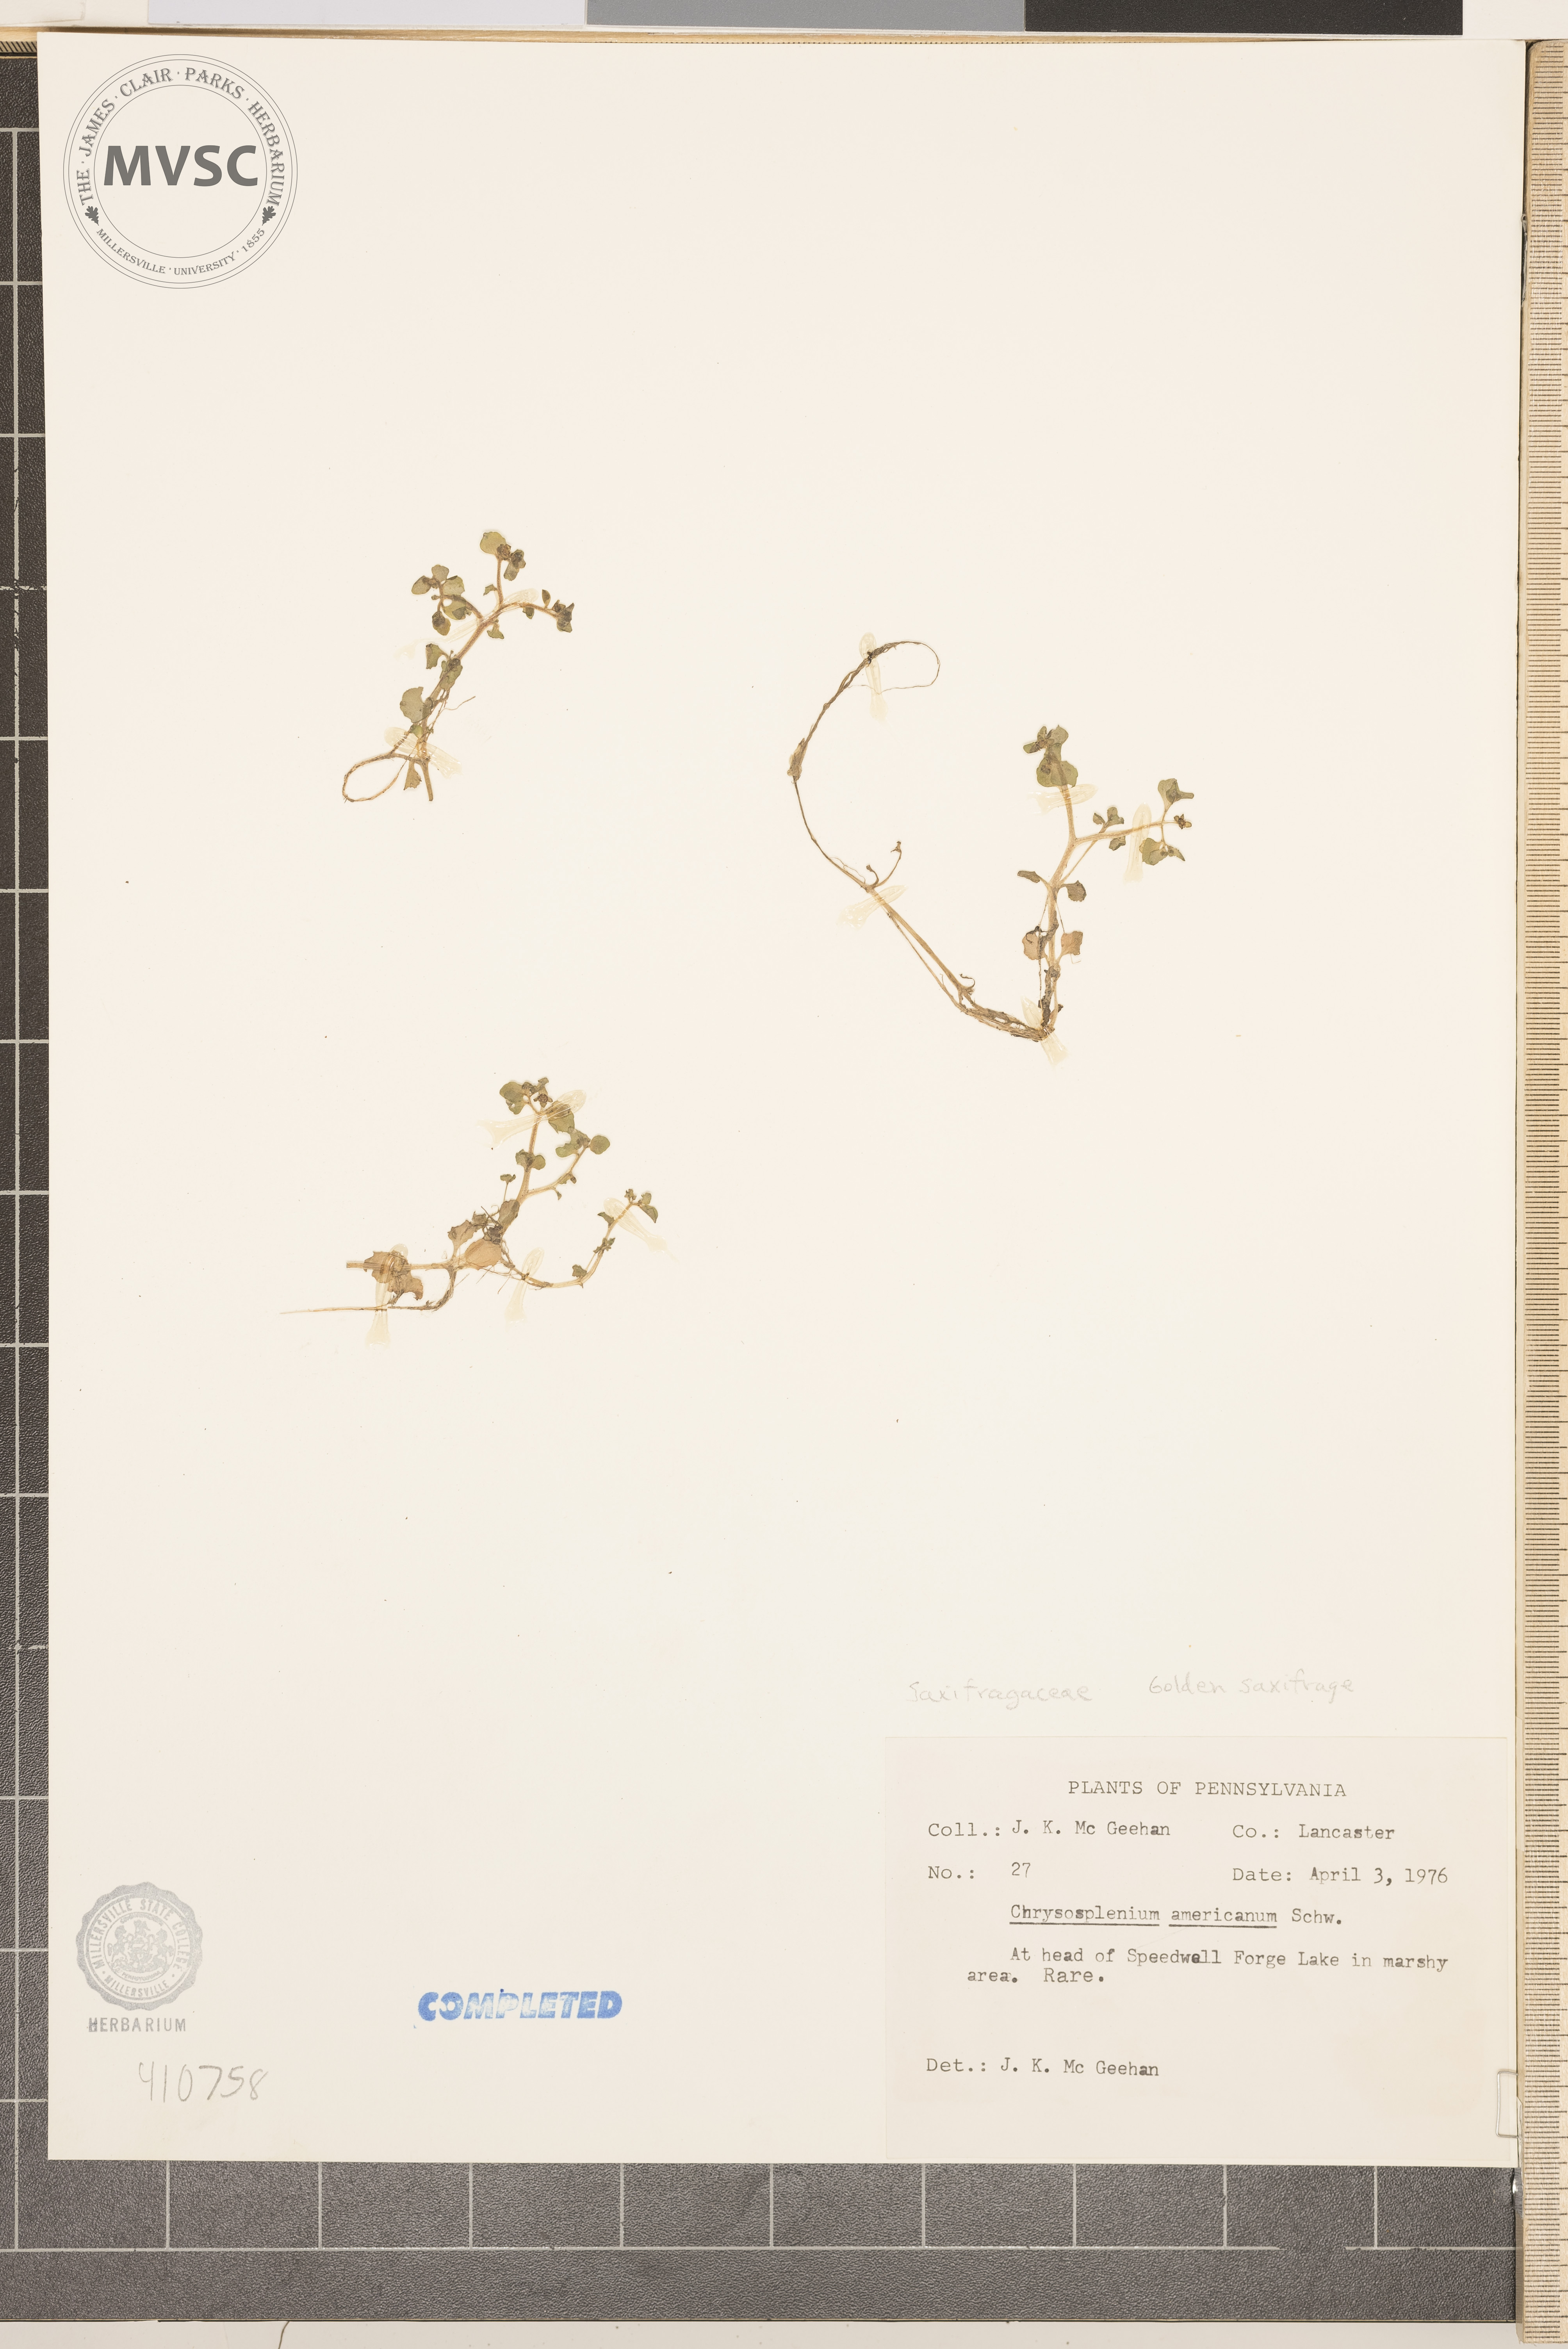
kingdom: Plantae
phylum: Tracheophyta
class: Magnoliopsida
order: Saxifragales
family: Saxifragaceae
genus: Chrysosplenium
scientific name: Chrysosplenium americanum
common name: American golden-saxifrage
